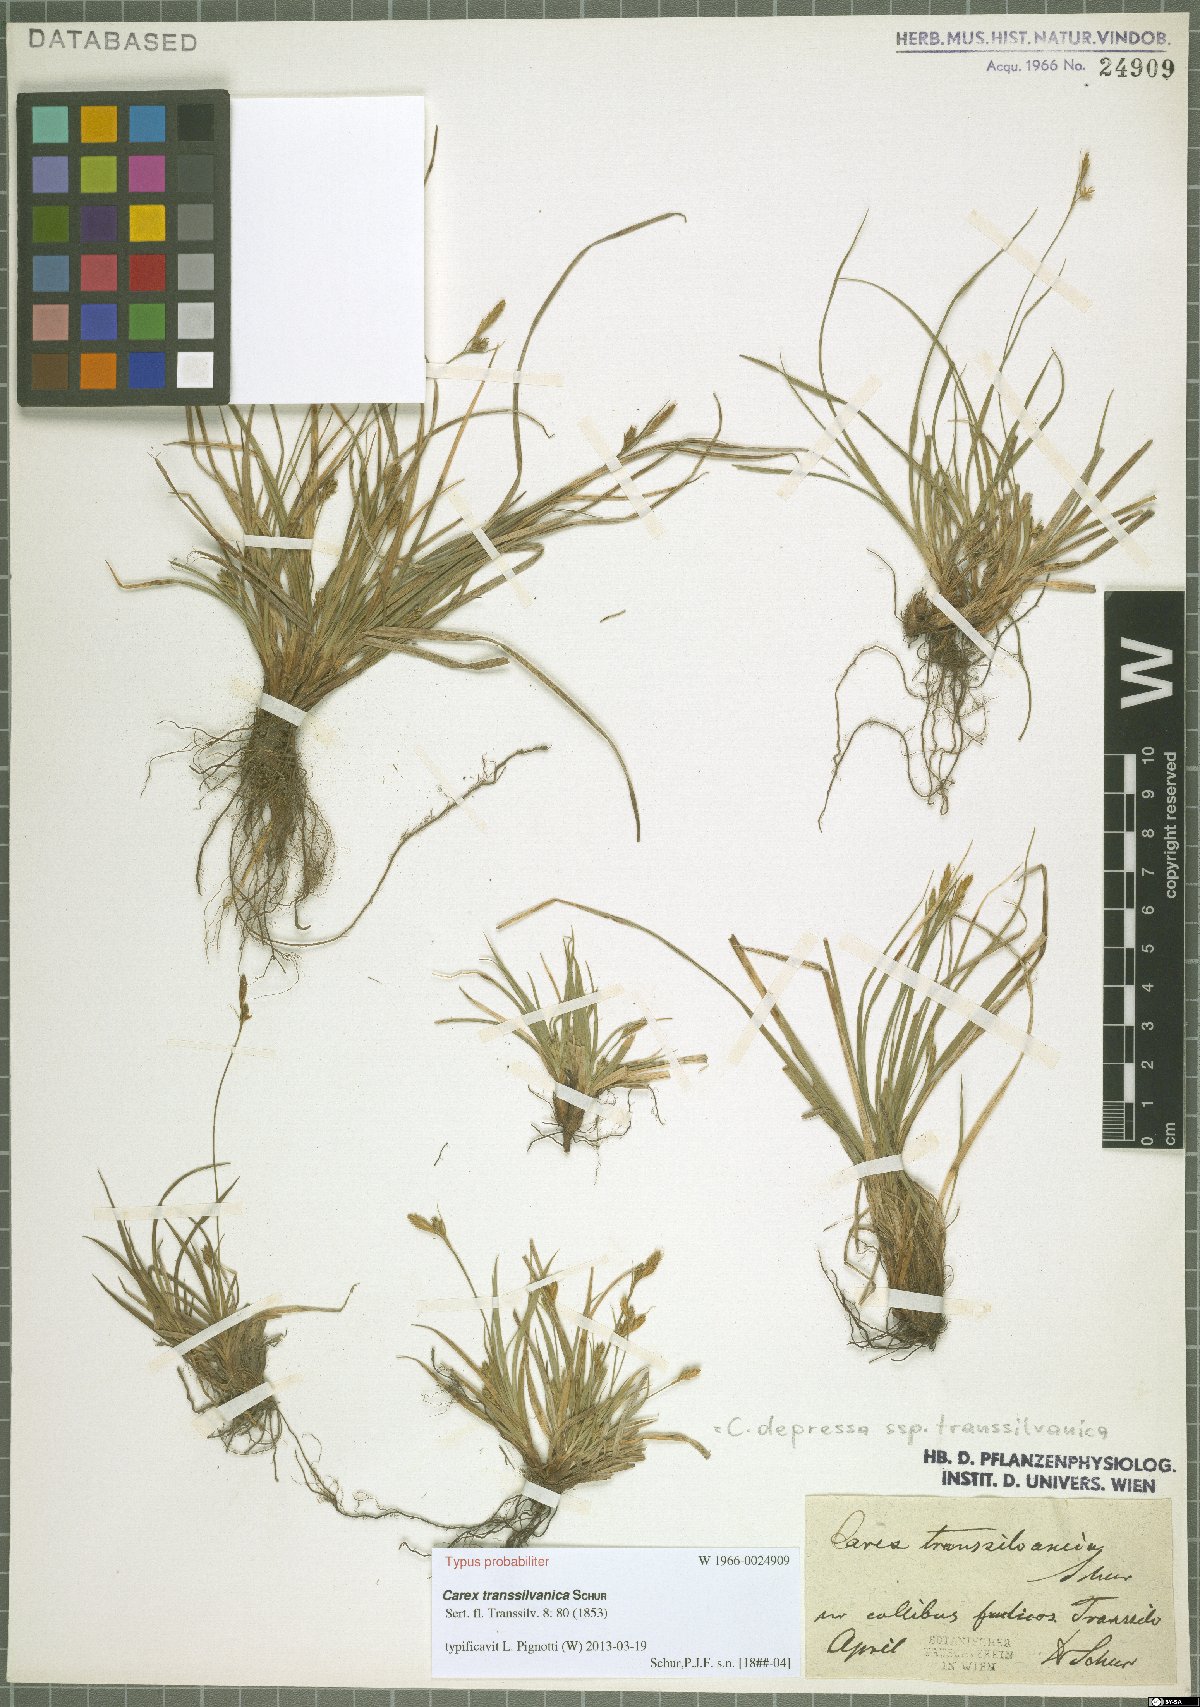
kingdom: Plantae
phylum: Tracheophyta
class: Liliopsida
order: Poales
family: Cyperaceae
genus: Carex
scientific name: Carex depressa
